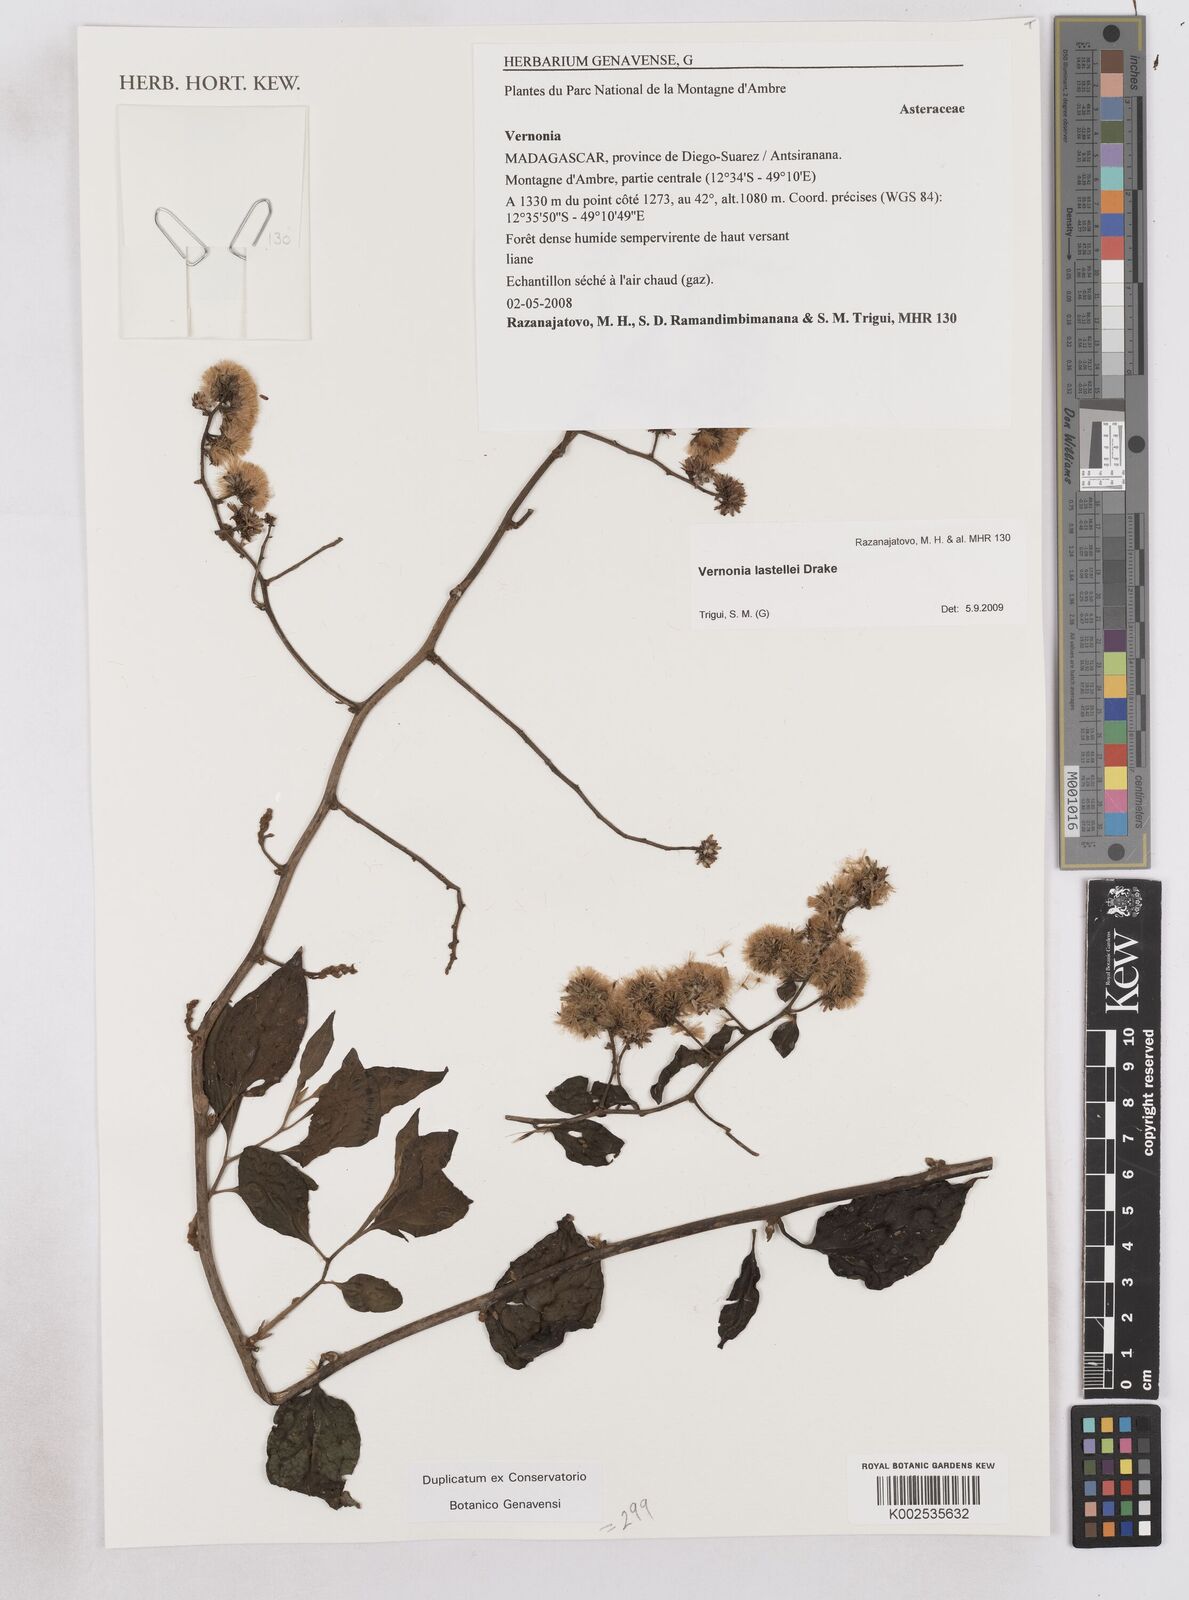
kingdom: Plantae
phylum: Tracheophyta
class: Magnoliopsida
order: Asterales
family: Asteraceae
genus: Distephanus
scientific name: Distephanus lastellei
